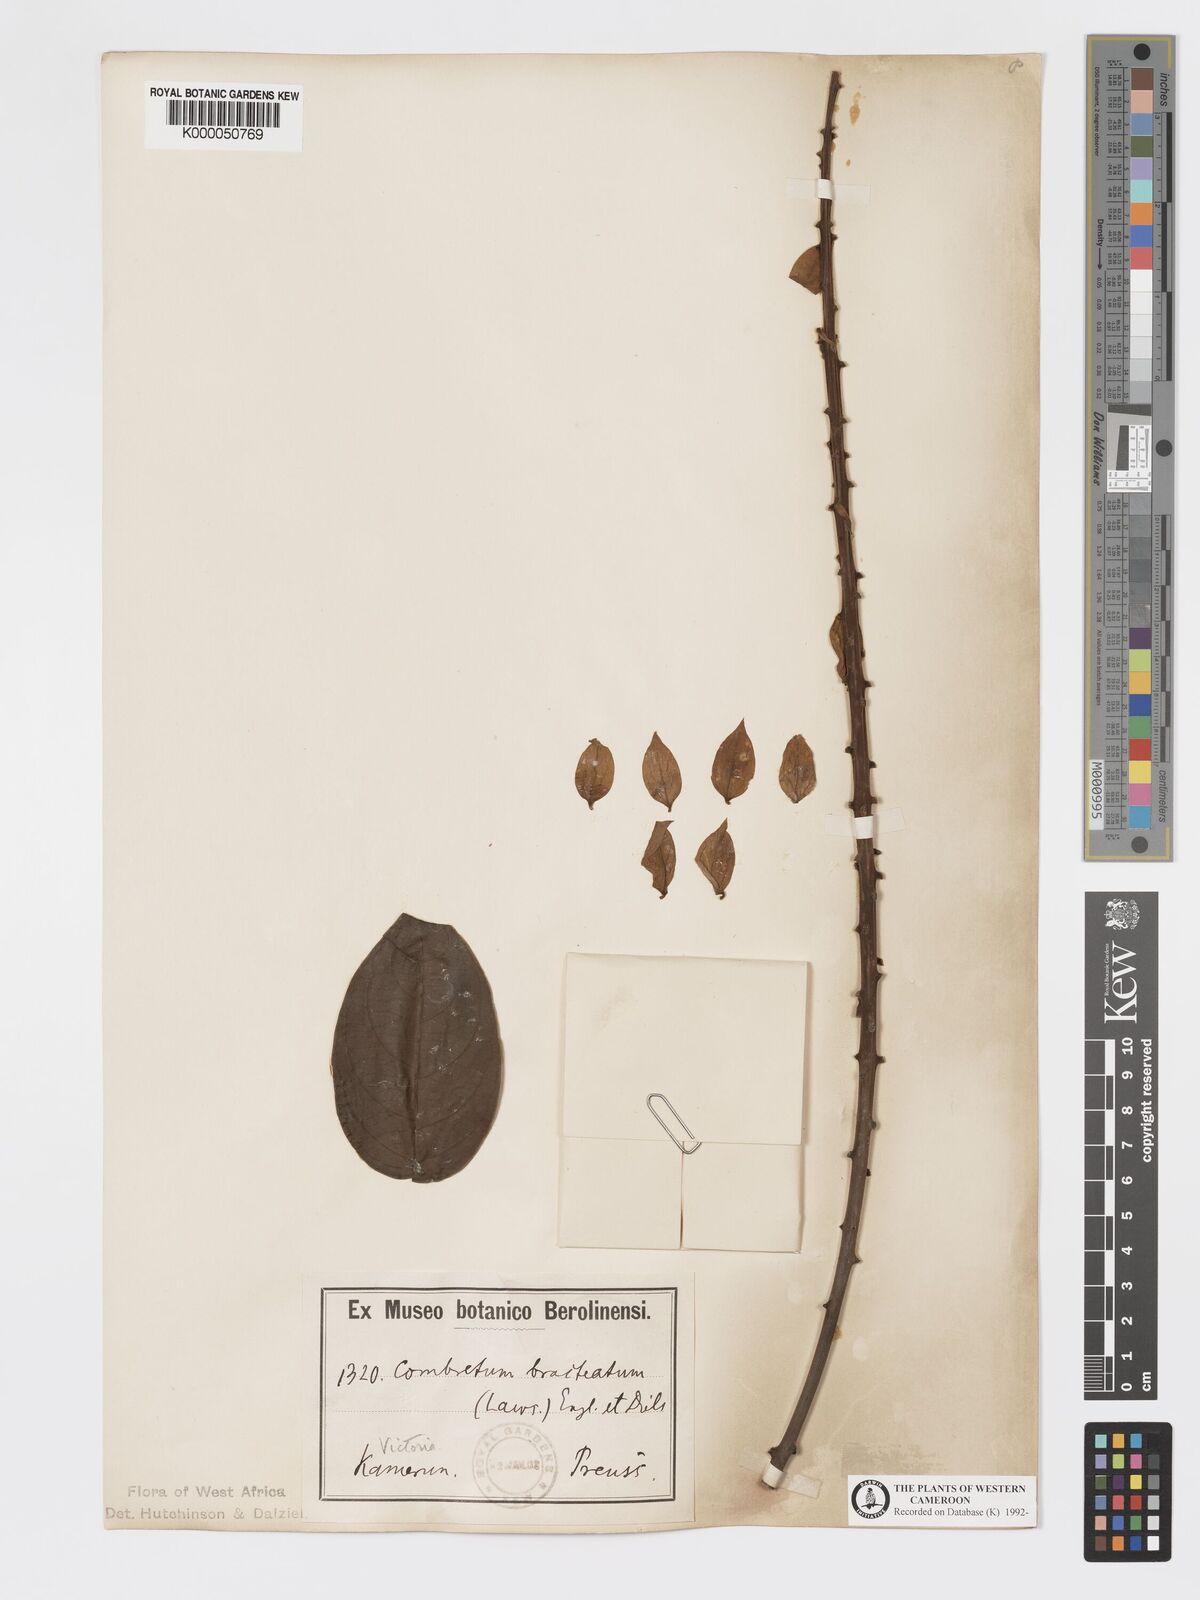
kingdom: Plantae
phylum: Tracheophyta
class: Magnoliopsida
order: Myrtales
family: Combretaceae
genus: Combretum
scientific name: Combretum bracteatum
